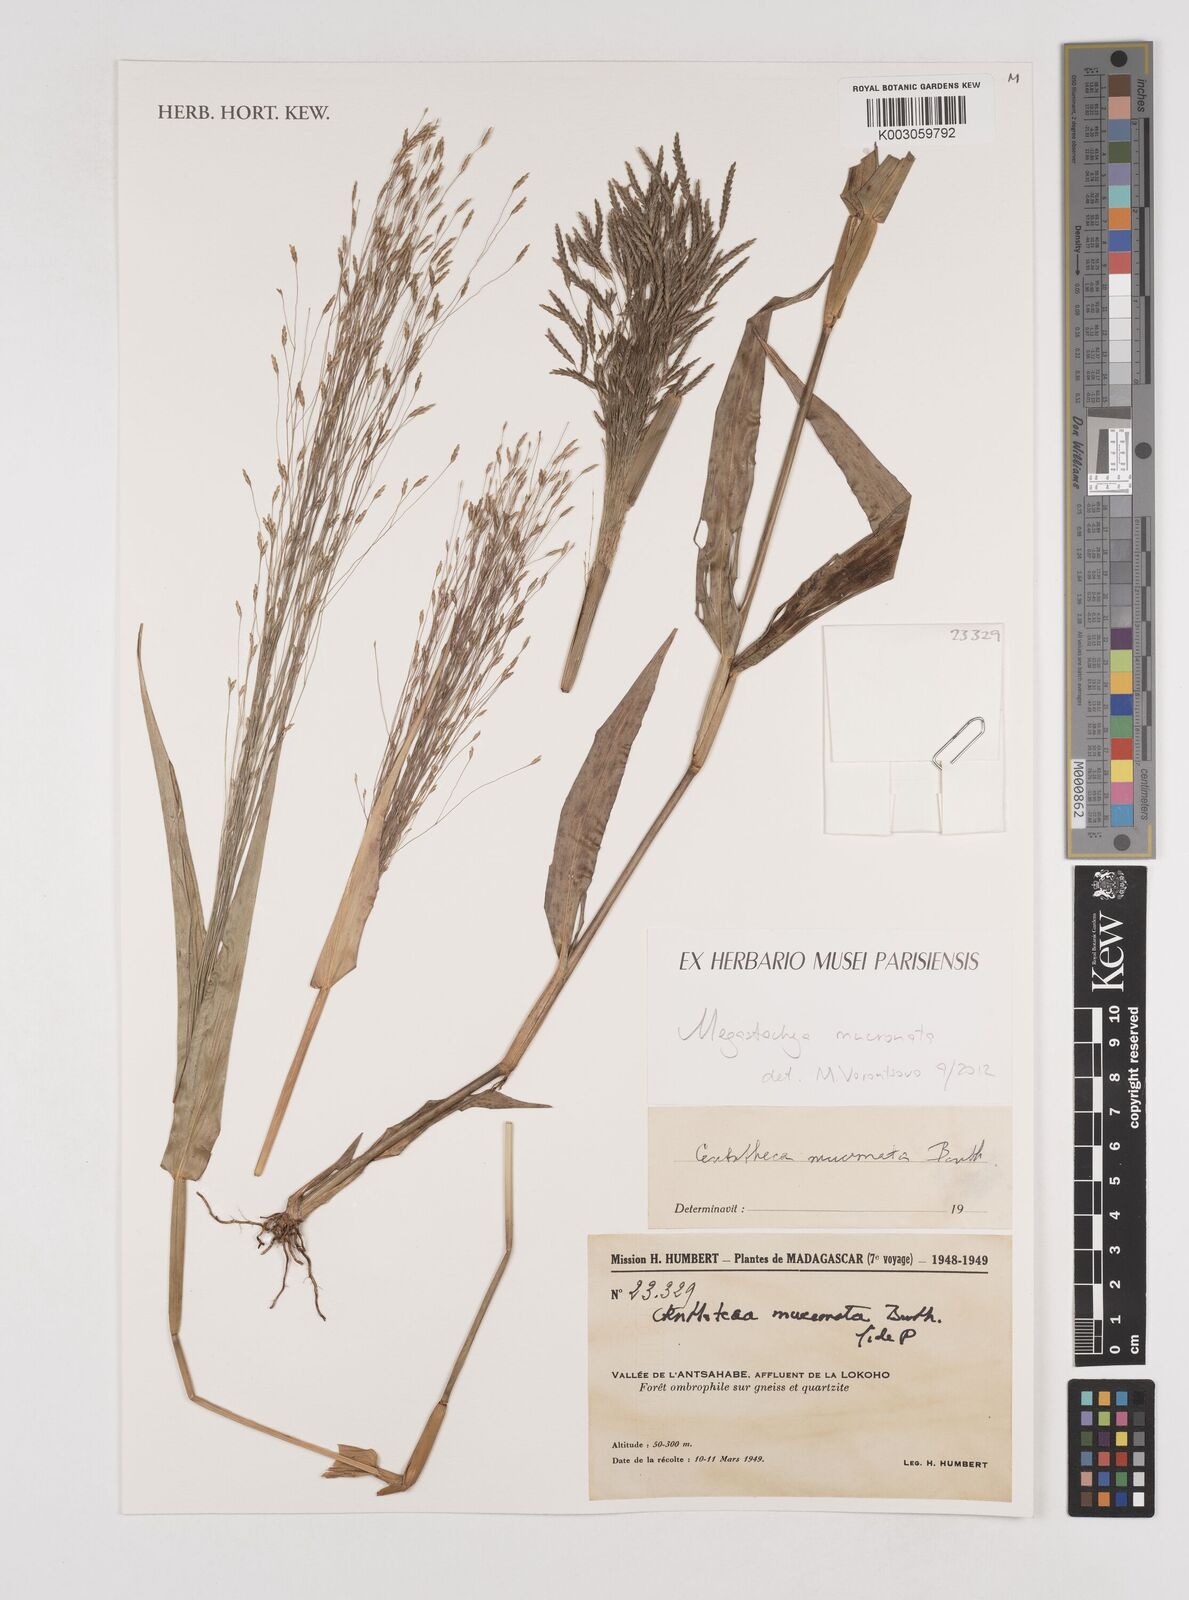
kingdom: Plantae
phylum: Tracheophyta
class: Liliopsida
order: Poales
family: Poaceae
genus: Megastachya
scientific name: Megastachya mucronata
